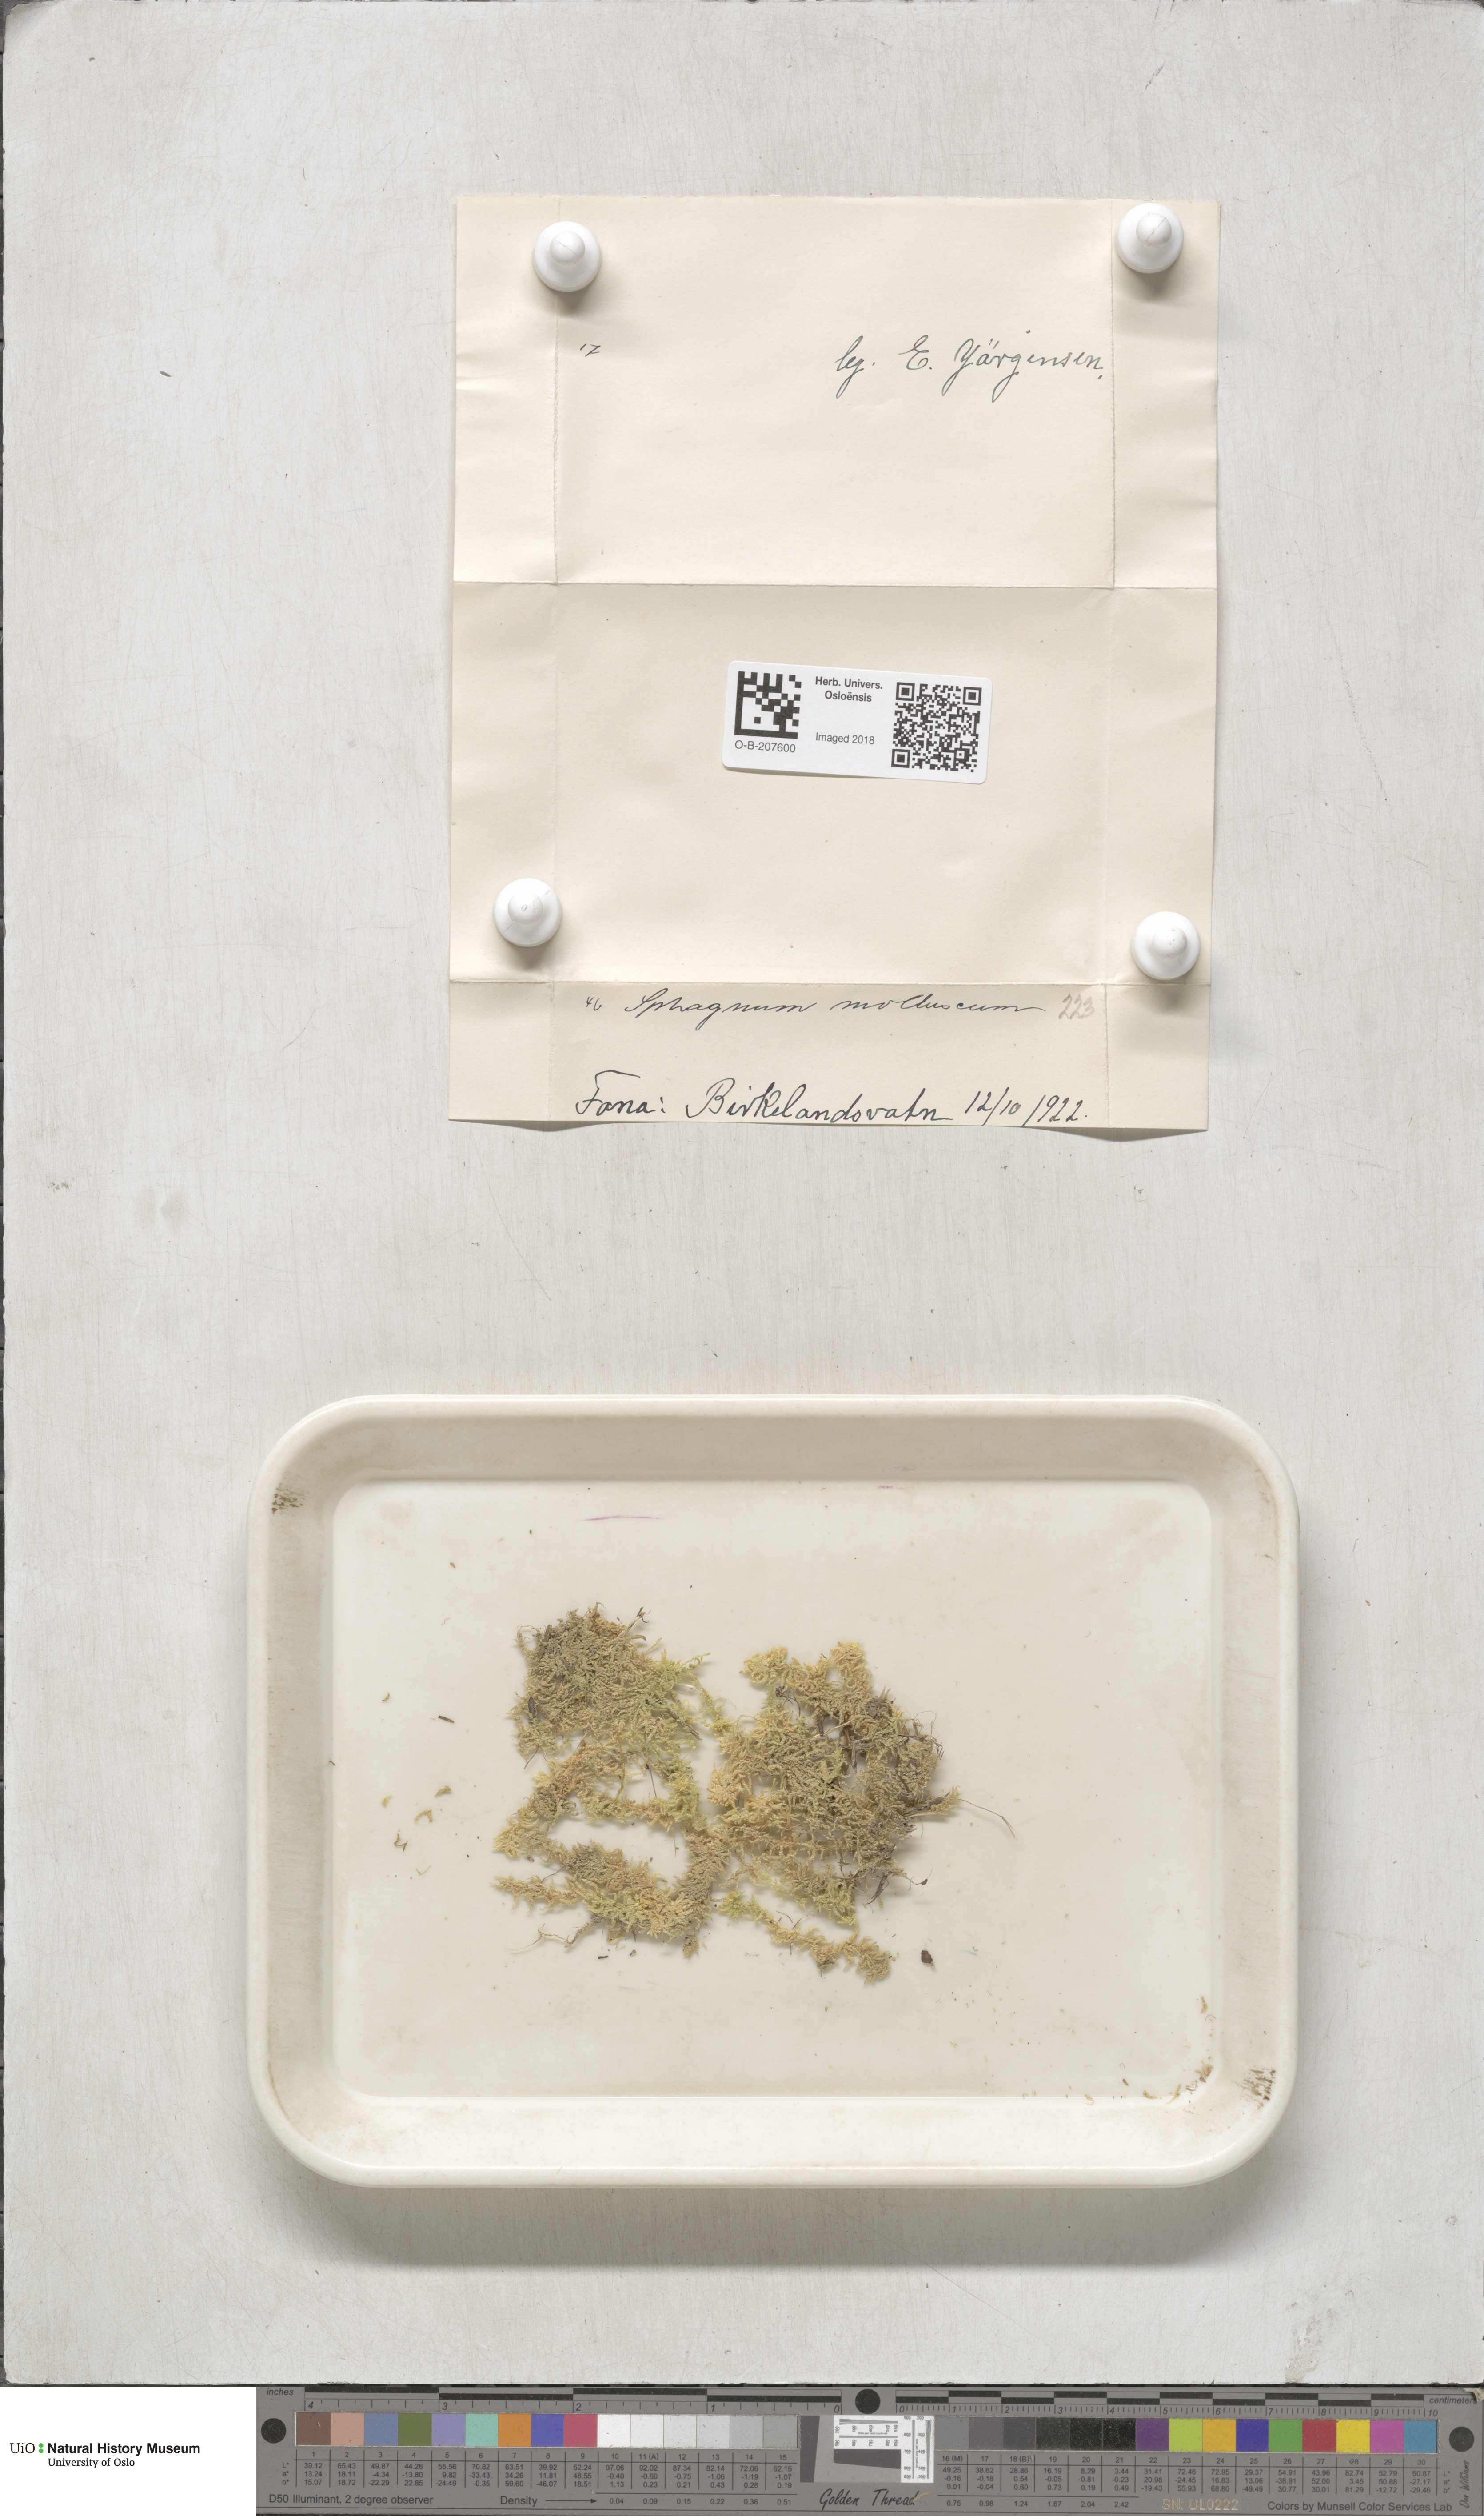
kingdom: Plantae
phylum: Bryophyta
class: Sphagnopsida
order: Sphagnales
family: Sphagnaceae
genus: Sphagnum
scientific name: Sphagnum tenellum
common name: Soft bog-moss
